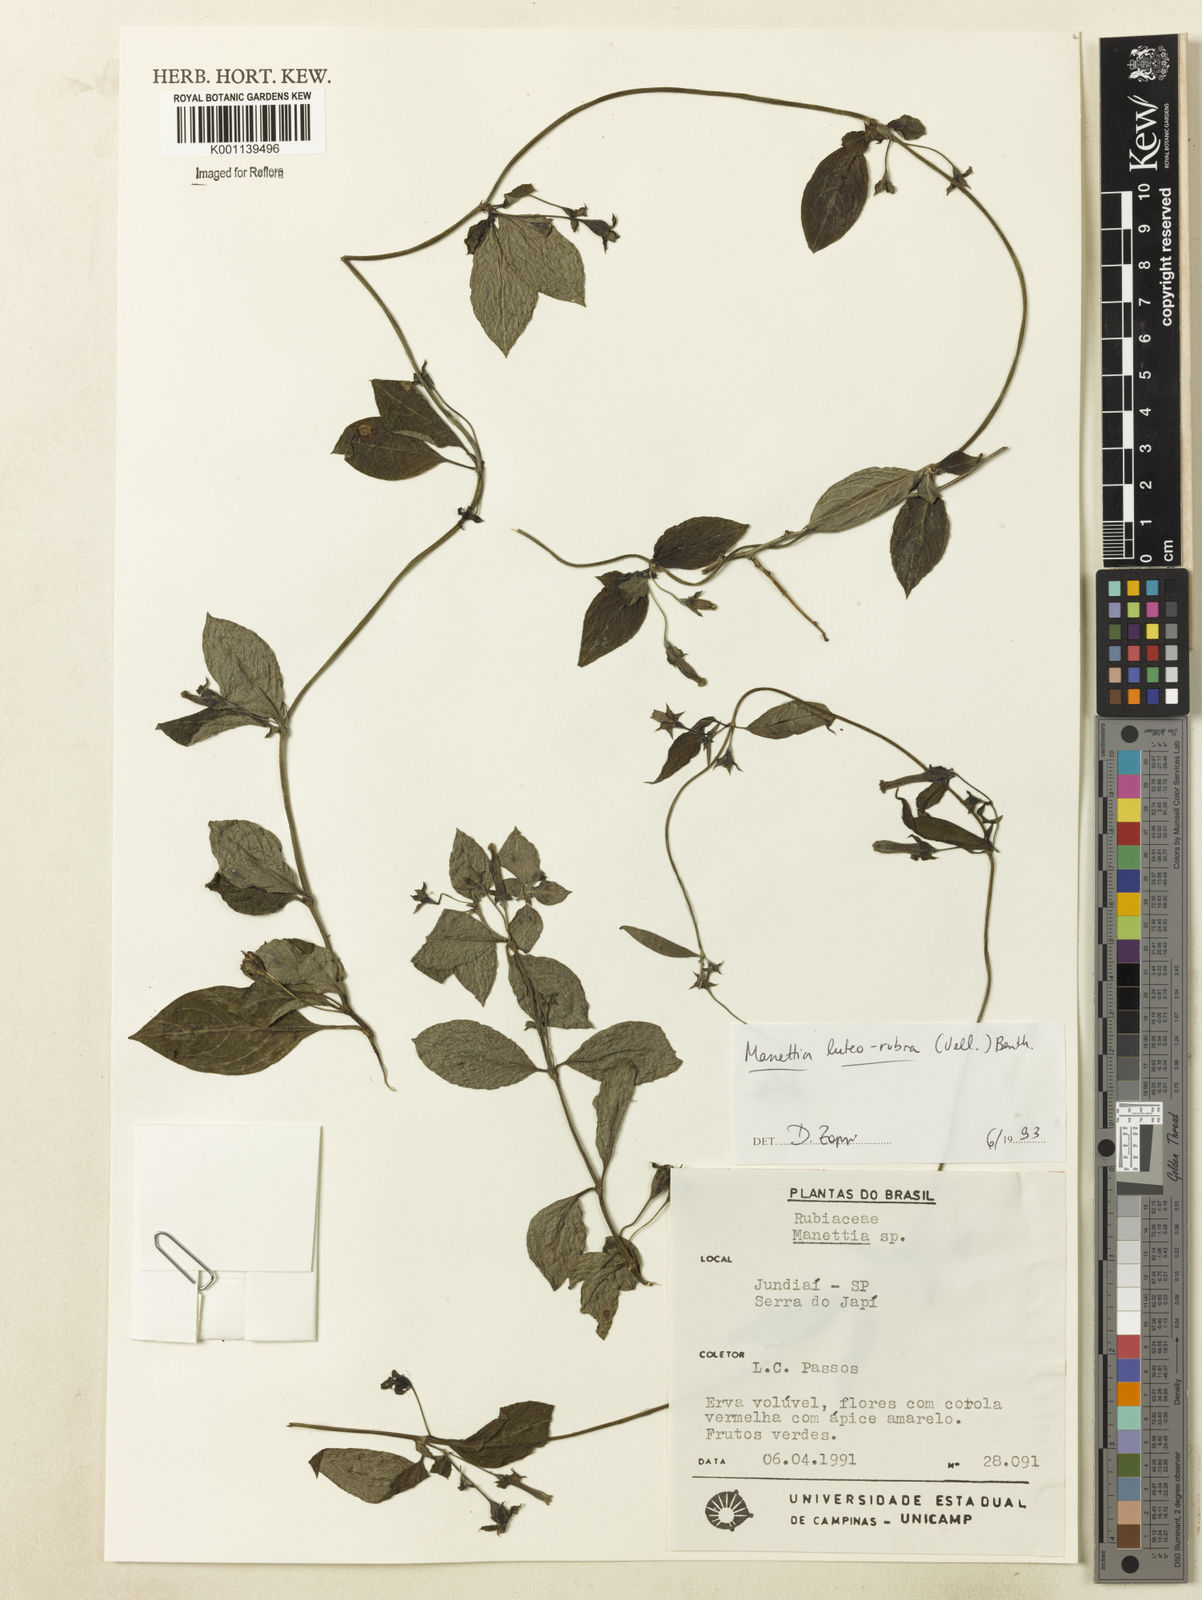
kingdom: Plantae
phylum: Tracheophyta
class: Magnoliopsida
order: Gentianales
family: Rubiaceae
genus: Manettia
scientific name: Manettia luteorubra
